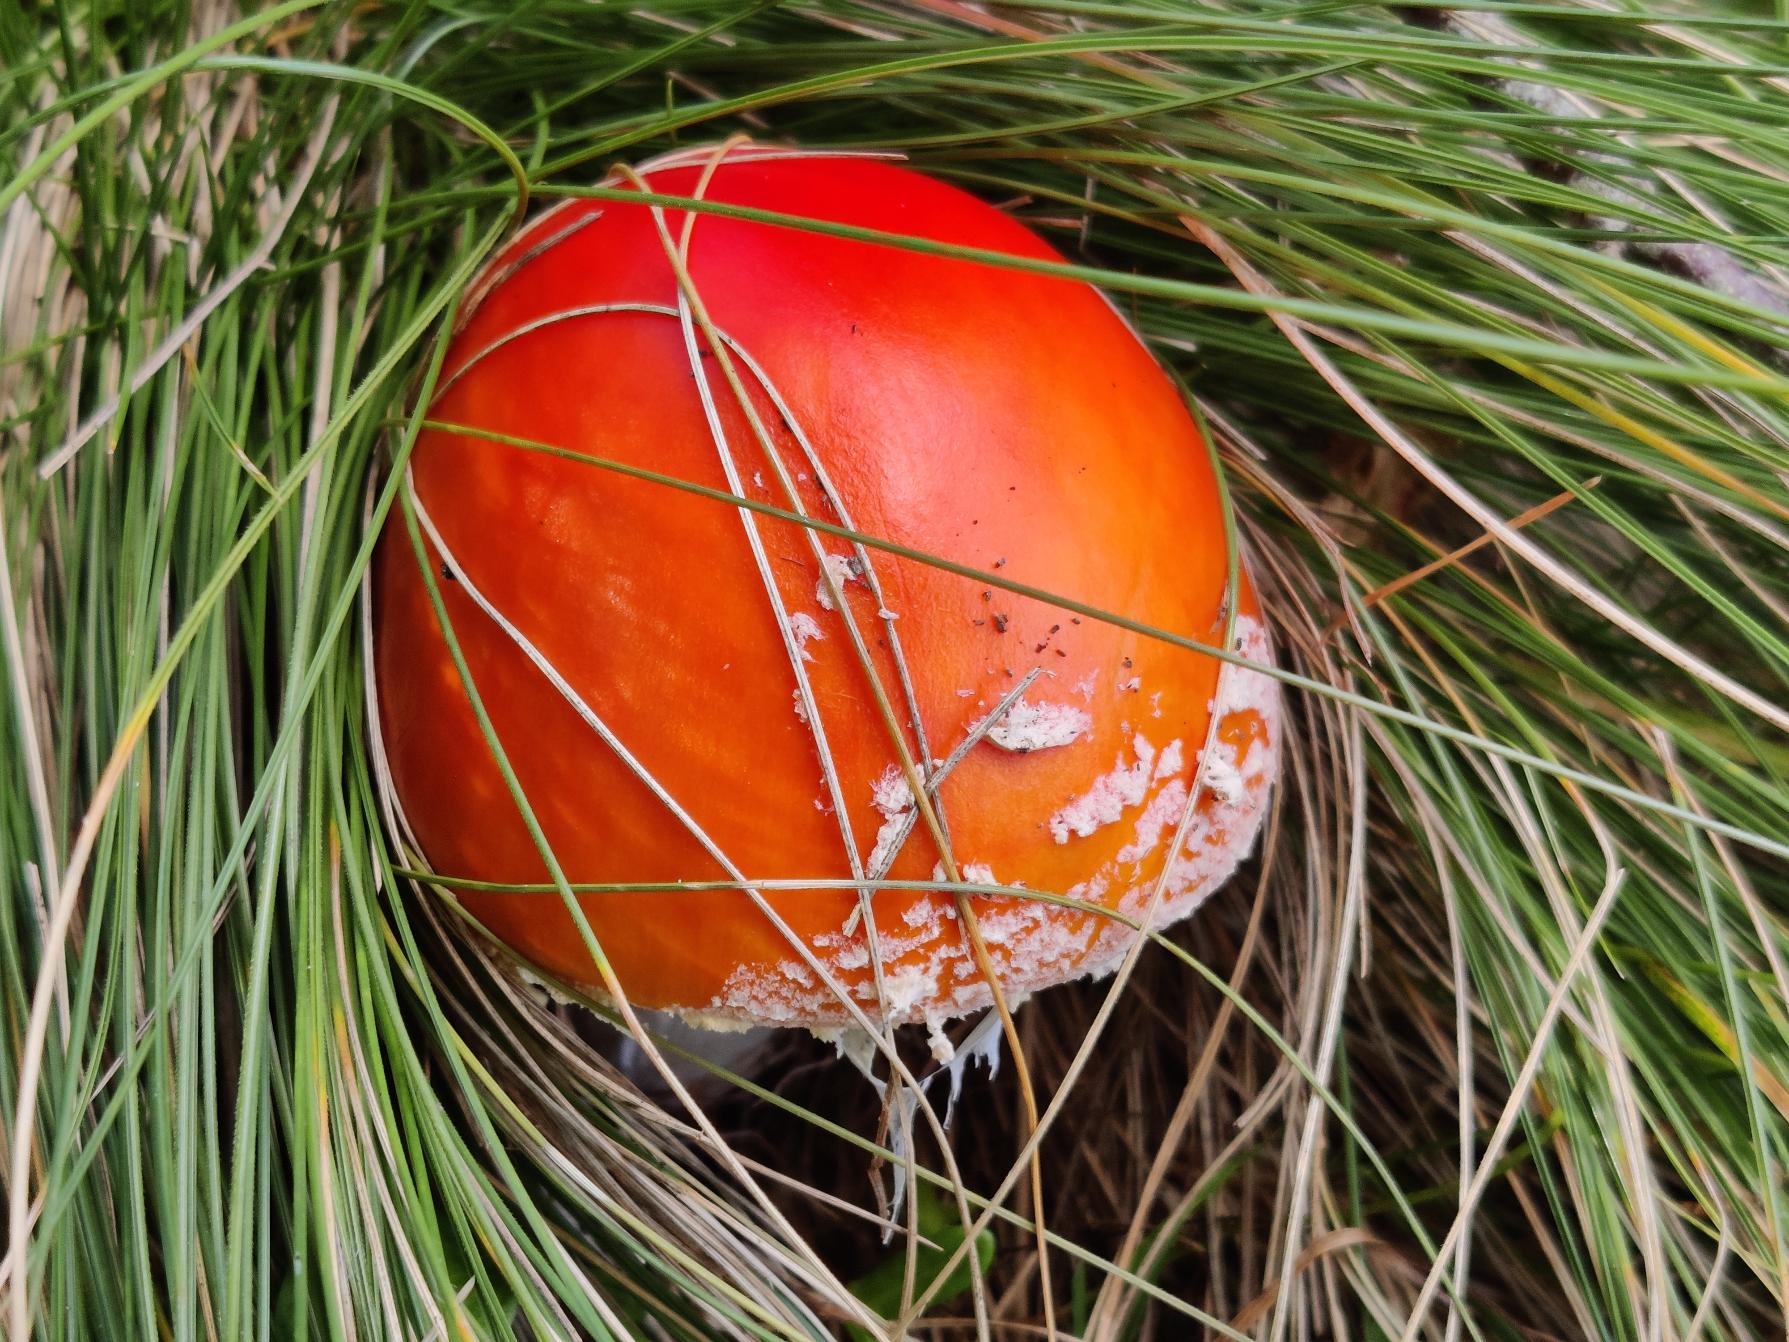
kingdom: Fungi
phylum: Basidiomycota
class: Agaricomycetes
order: Agaricales
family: Amanitaceae
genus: Amanita
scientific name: Amanita muscaria
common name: Rød fluesvamp
